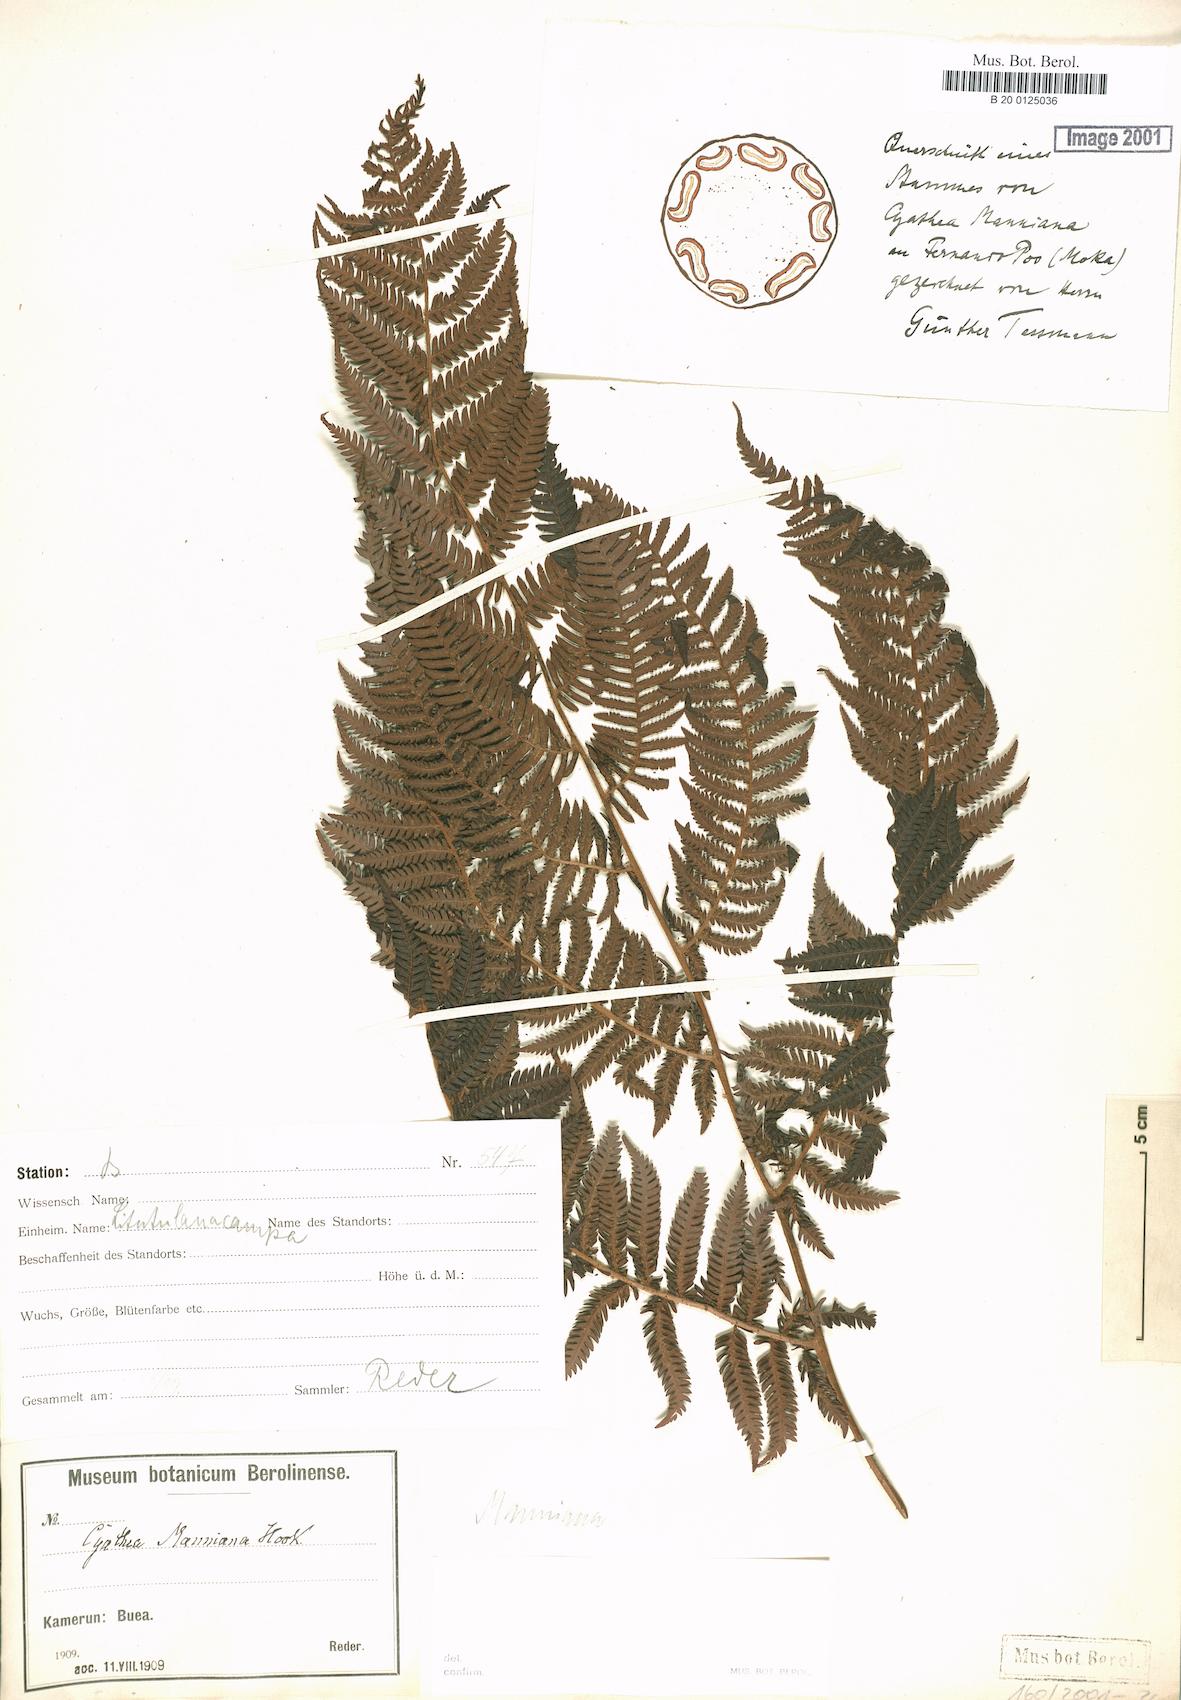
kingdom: Plantae
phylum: Tracheophyta
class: Polypodiopsida
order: Cyatheales
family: Cyatheaceae
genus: Alsophila
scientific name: Alsophila manniana
